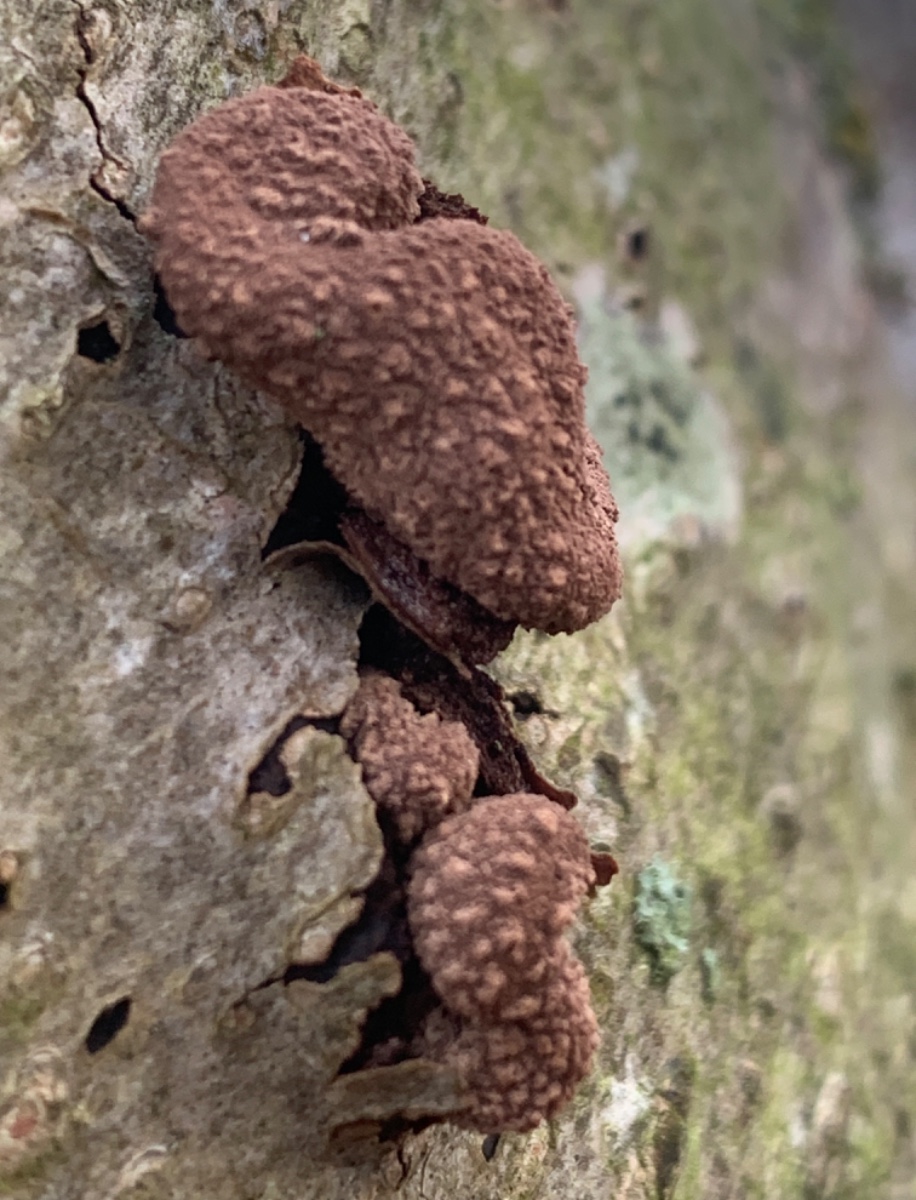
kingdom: Fungi
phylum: Ascomycota
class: Leotiomycetes
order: Helotiales
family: Cenangiaceae
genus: Encoelia
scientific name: Encoelia furfuracea
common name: hassel-læderskive
